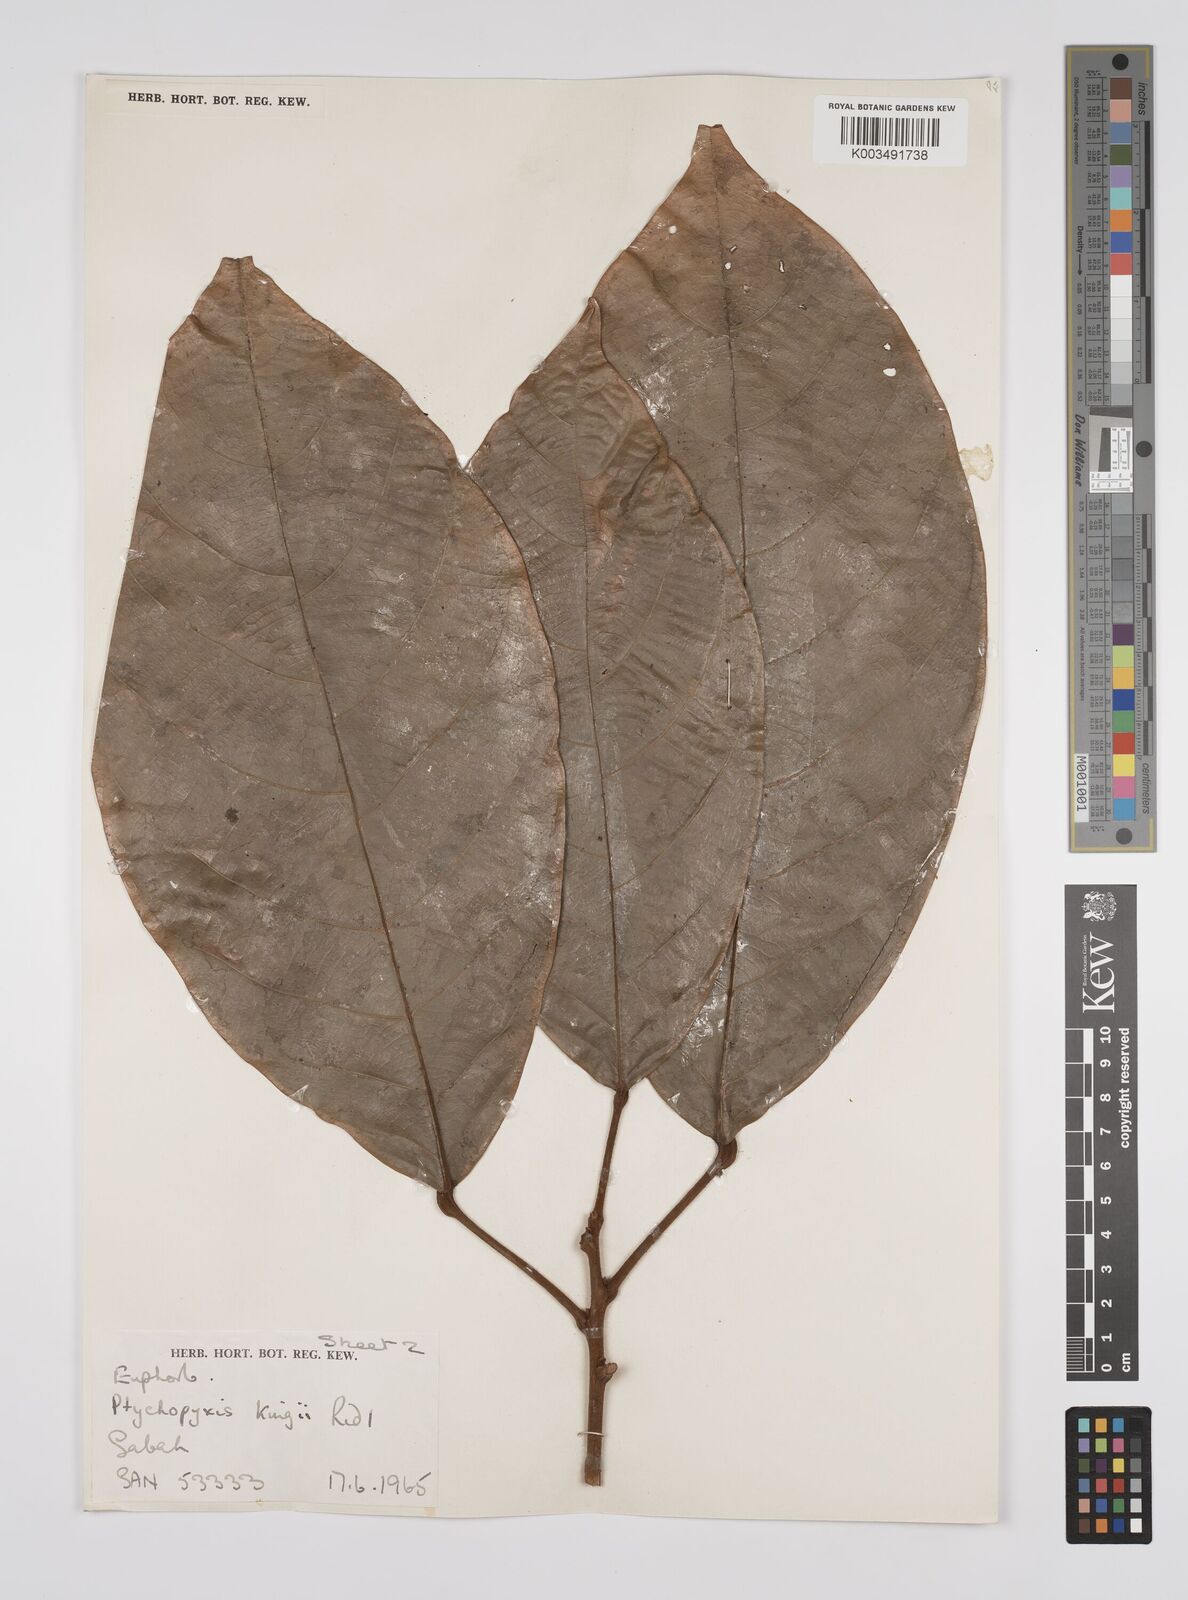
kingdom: Plantae
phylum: Tracheophyta
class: Magnoliopsida
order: Malpighiales
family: Euphorbiaceae
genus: Ptychopyxis
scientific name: Ptychopyxis kingii
